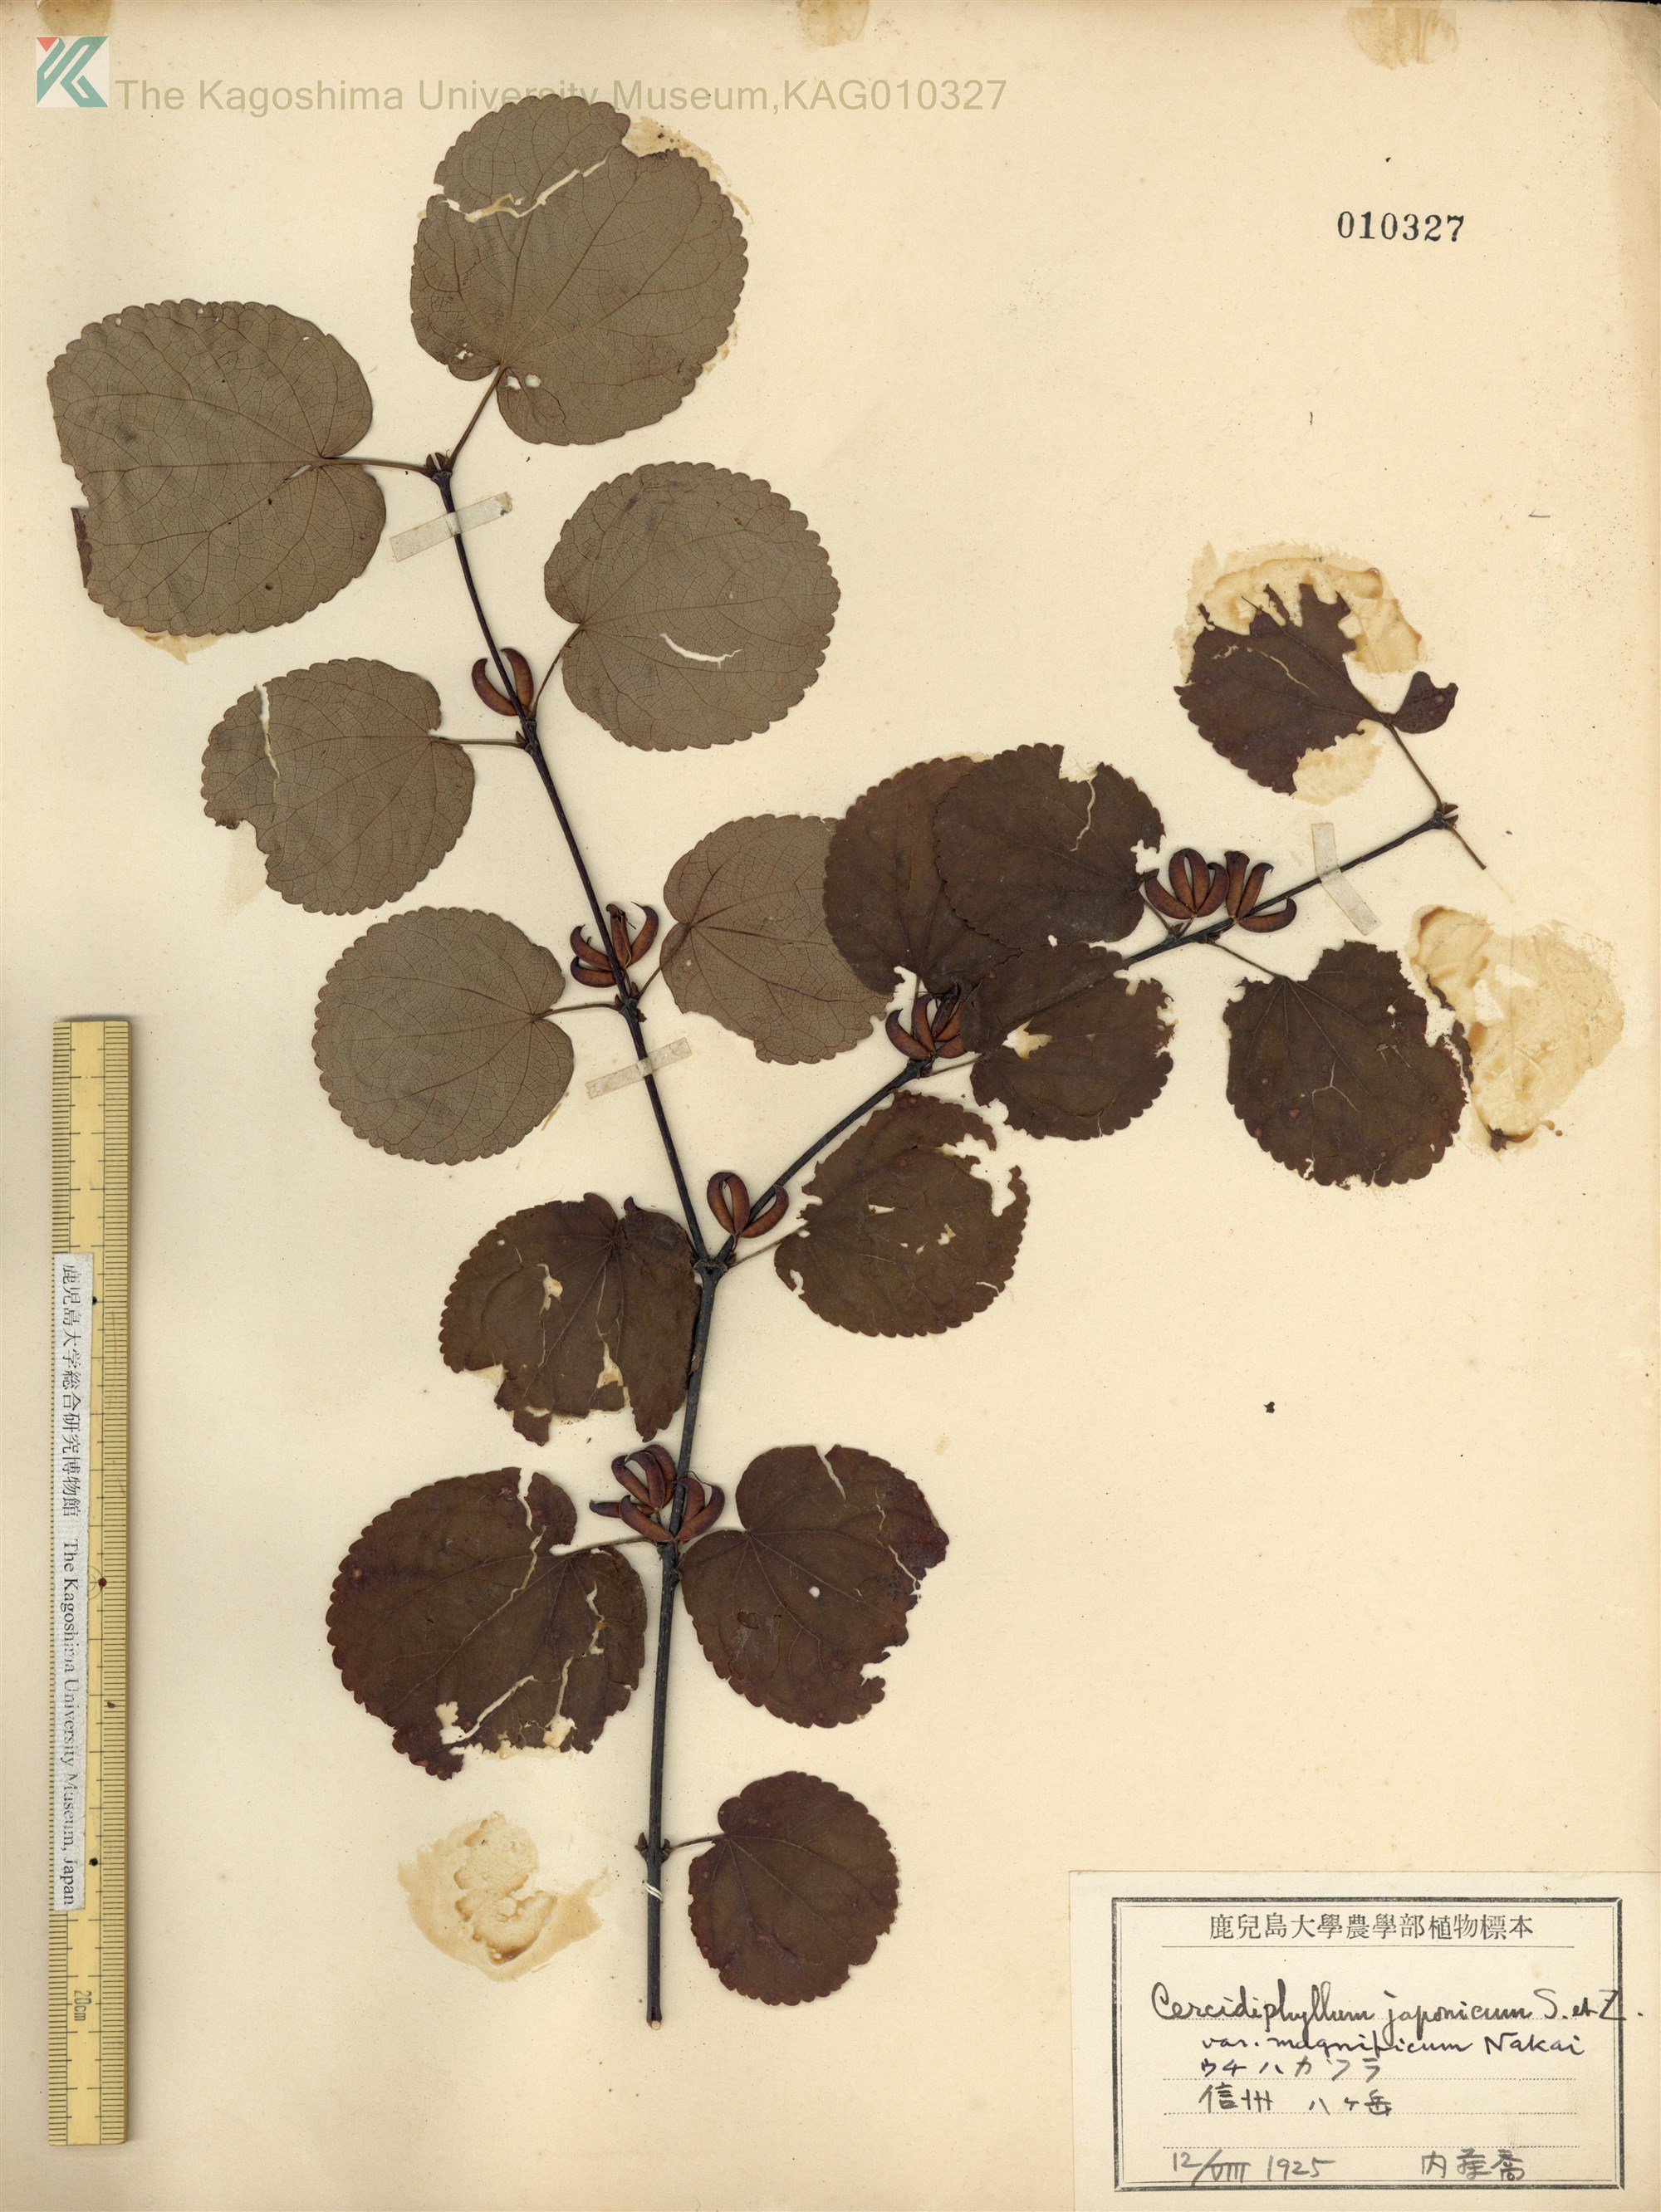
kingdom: Plantae
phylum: Tracheophyta
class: Magnoliopsida
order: Saxifragales
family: Cercidiphyllaceae
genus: Cercidiphyllum
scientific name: Cercidiphyllum magnificum
